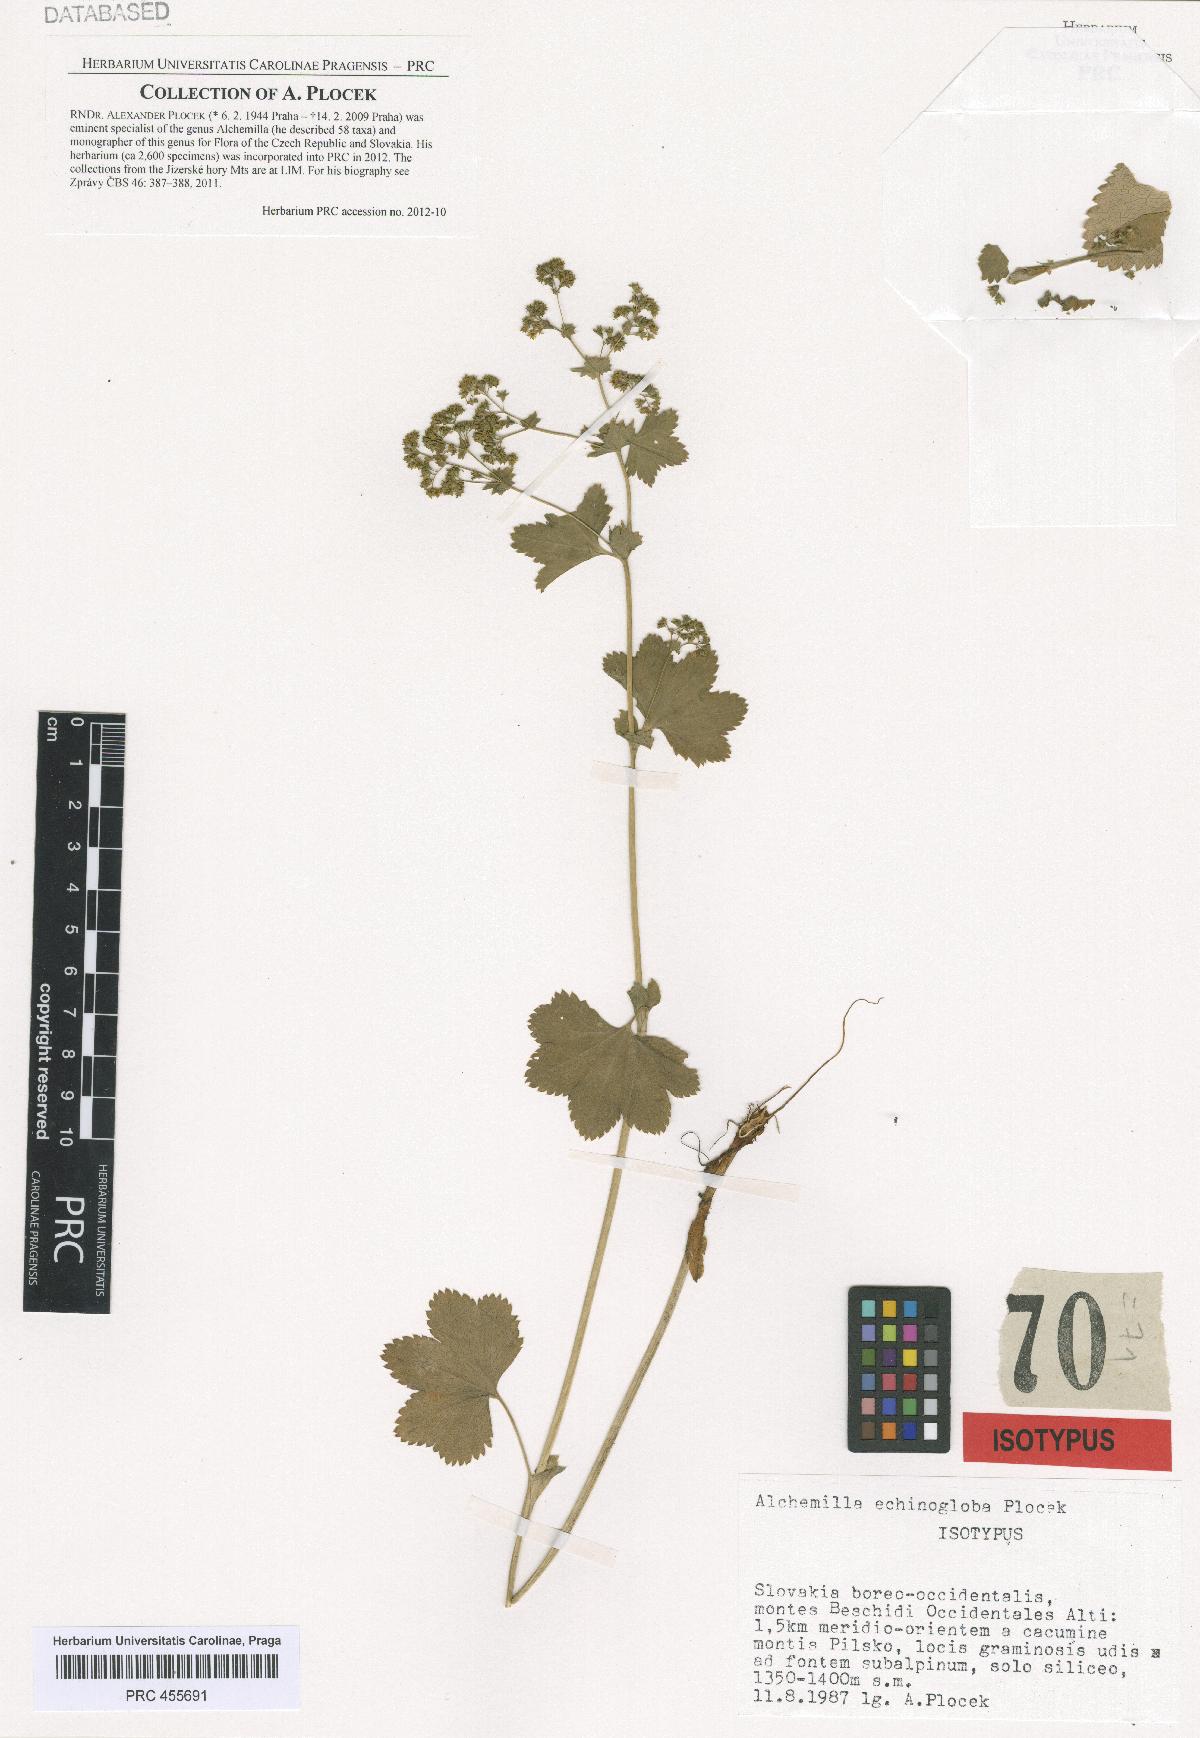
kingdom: Plantae
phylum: Tracheophyta
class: Magnoliopsida
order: Rosales
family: Rosaceae
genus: Alchemilla
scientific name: Alchemilla echinogloba
